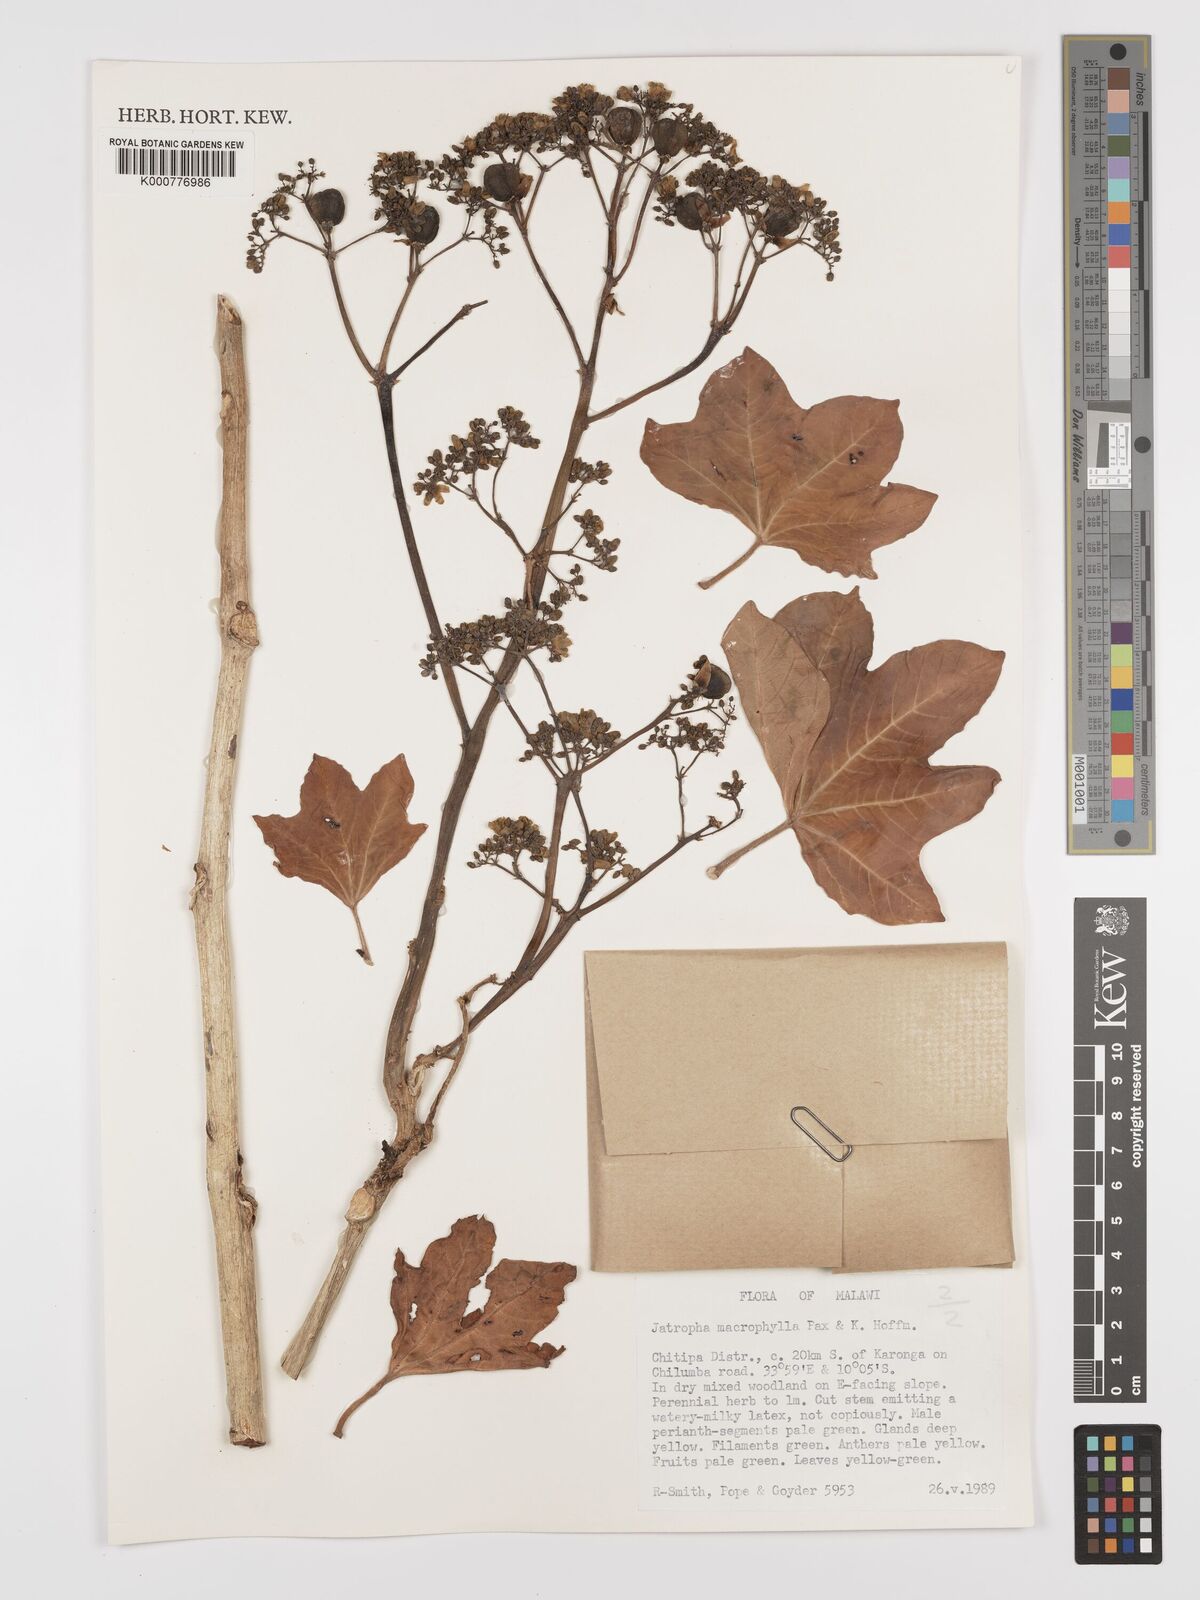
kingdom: Plantae
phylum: Tracheophyta
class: Magnoliopsida
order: Malpighiales
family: Euphorbiaceae
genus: Jatropha
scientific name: Jatropha macrophylla
